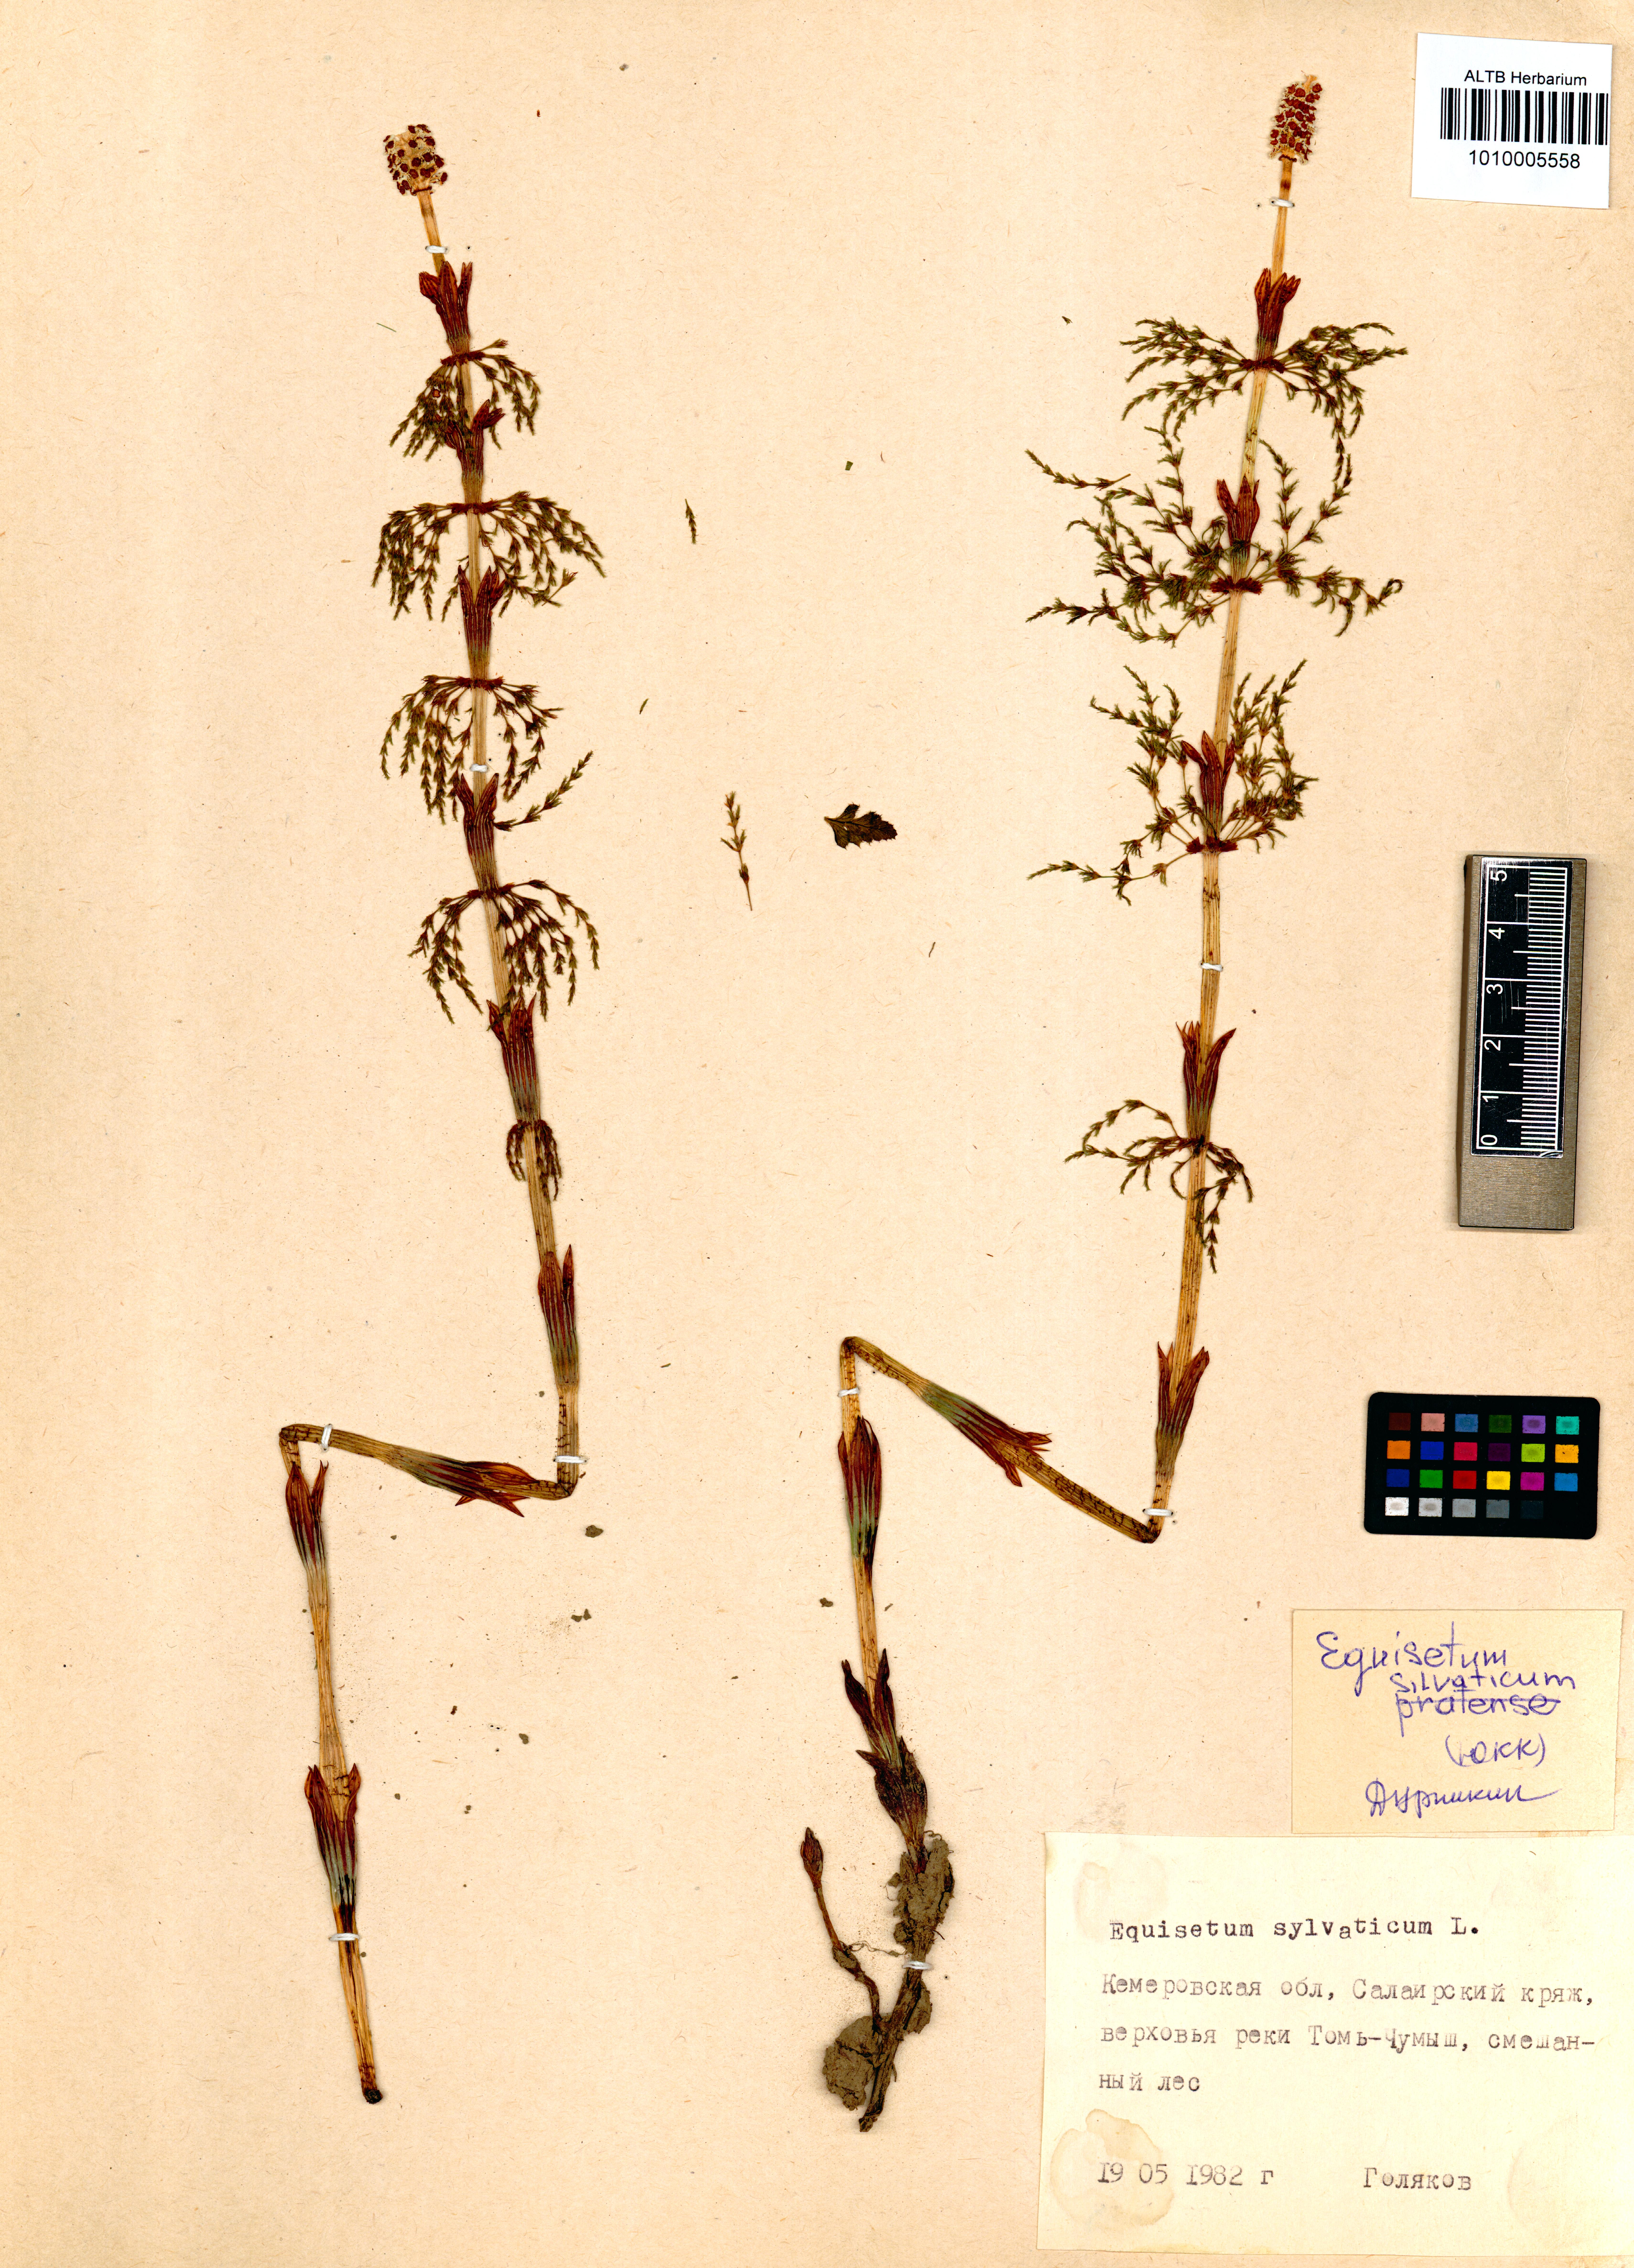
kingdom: Plantae
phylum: Tracheophyta
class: Polypodiopsida
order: Equisetales
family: Equisetaceae
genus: Equisetum
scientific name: Equisetum sylvaticum
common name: Wood horsetail
